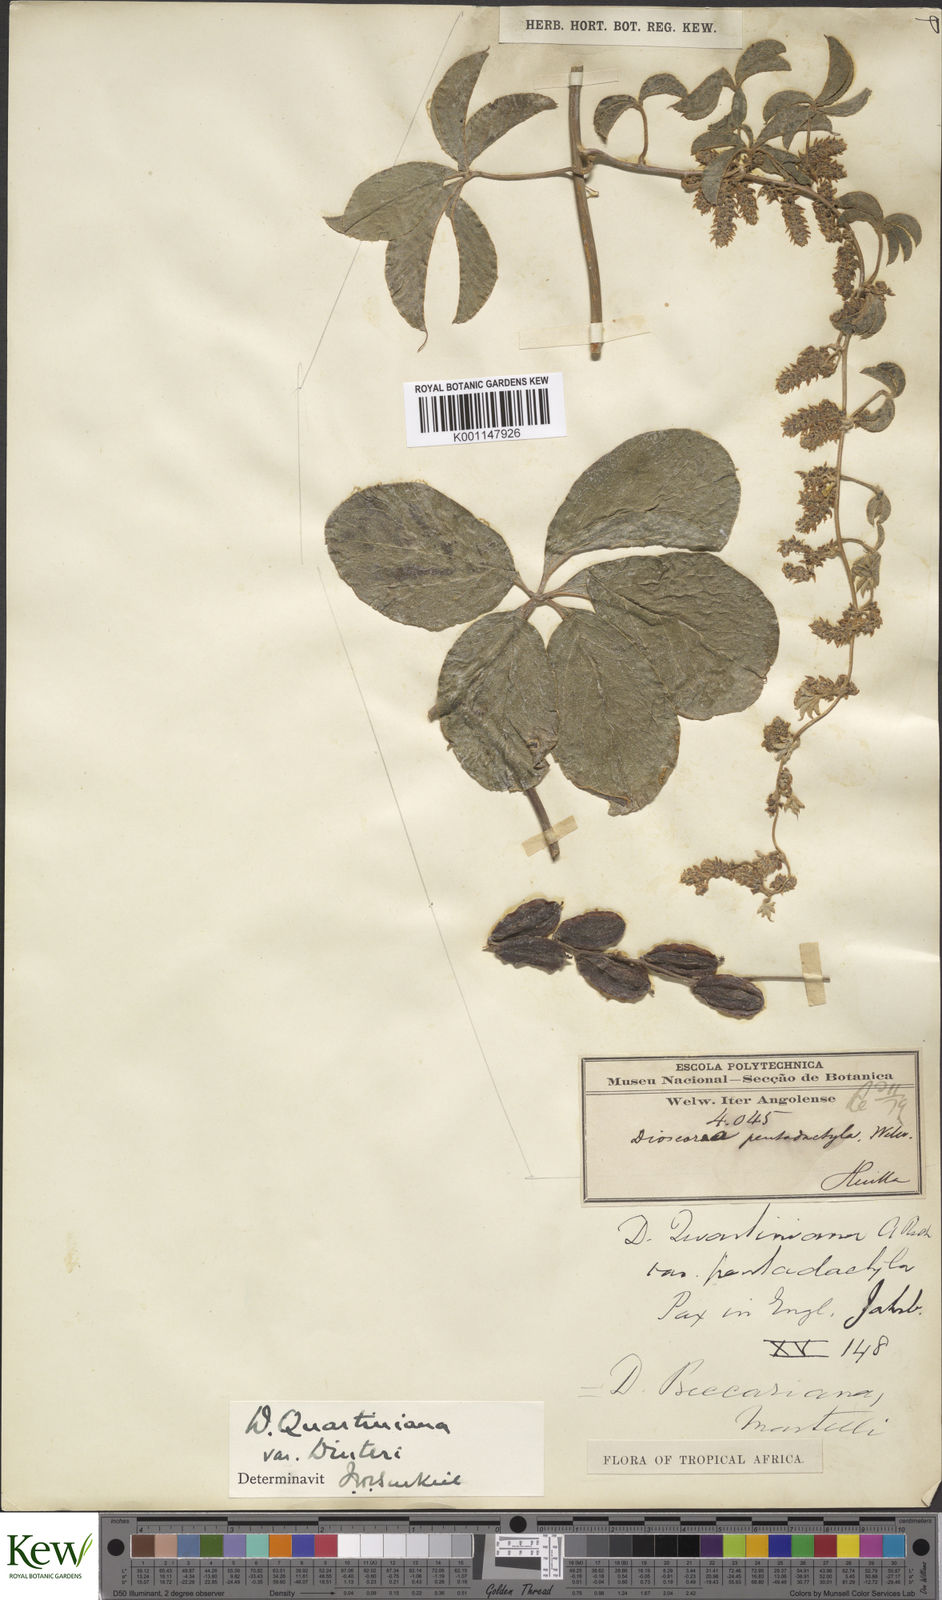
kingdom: Plantae
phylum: Tracheophyta
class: Liliopsida
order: Dioscoreales
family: Dioscoreaceae
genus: Dioscorea
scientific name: Dioscorea quartiniana
